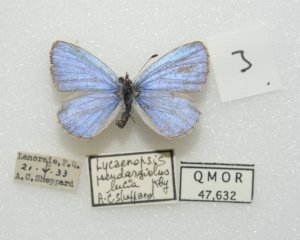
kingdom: Animalia
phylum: Arthropoda
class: Insecta
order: Lepidoptera
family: Lycaenidae
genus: Celastrina
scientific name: Celastrina lucia
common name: Northern Spring Azure
